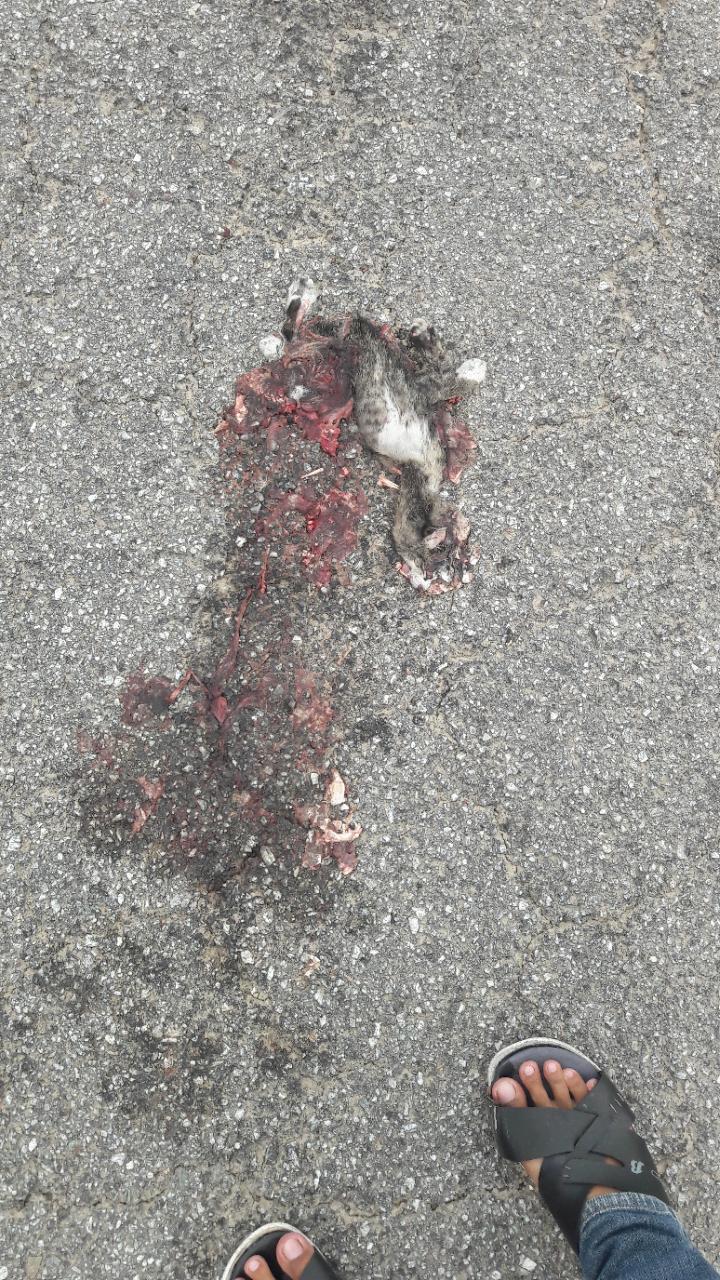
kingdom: Animalia
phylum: Chordata
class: Mammalia
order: Carnivora
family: Felidae
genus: Felis
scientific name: Felis catus
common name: Domestic cat
